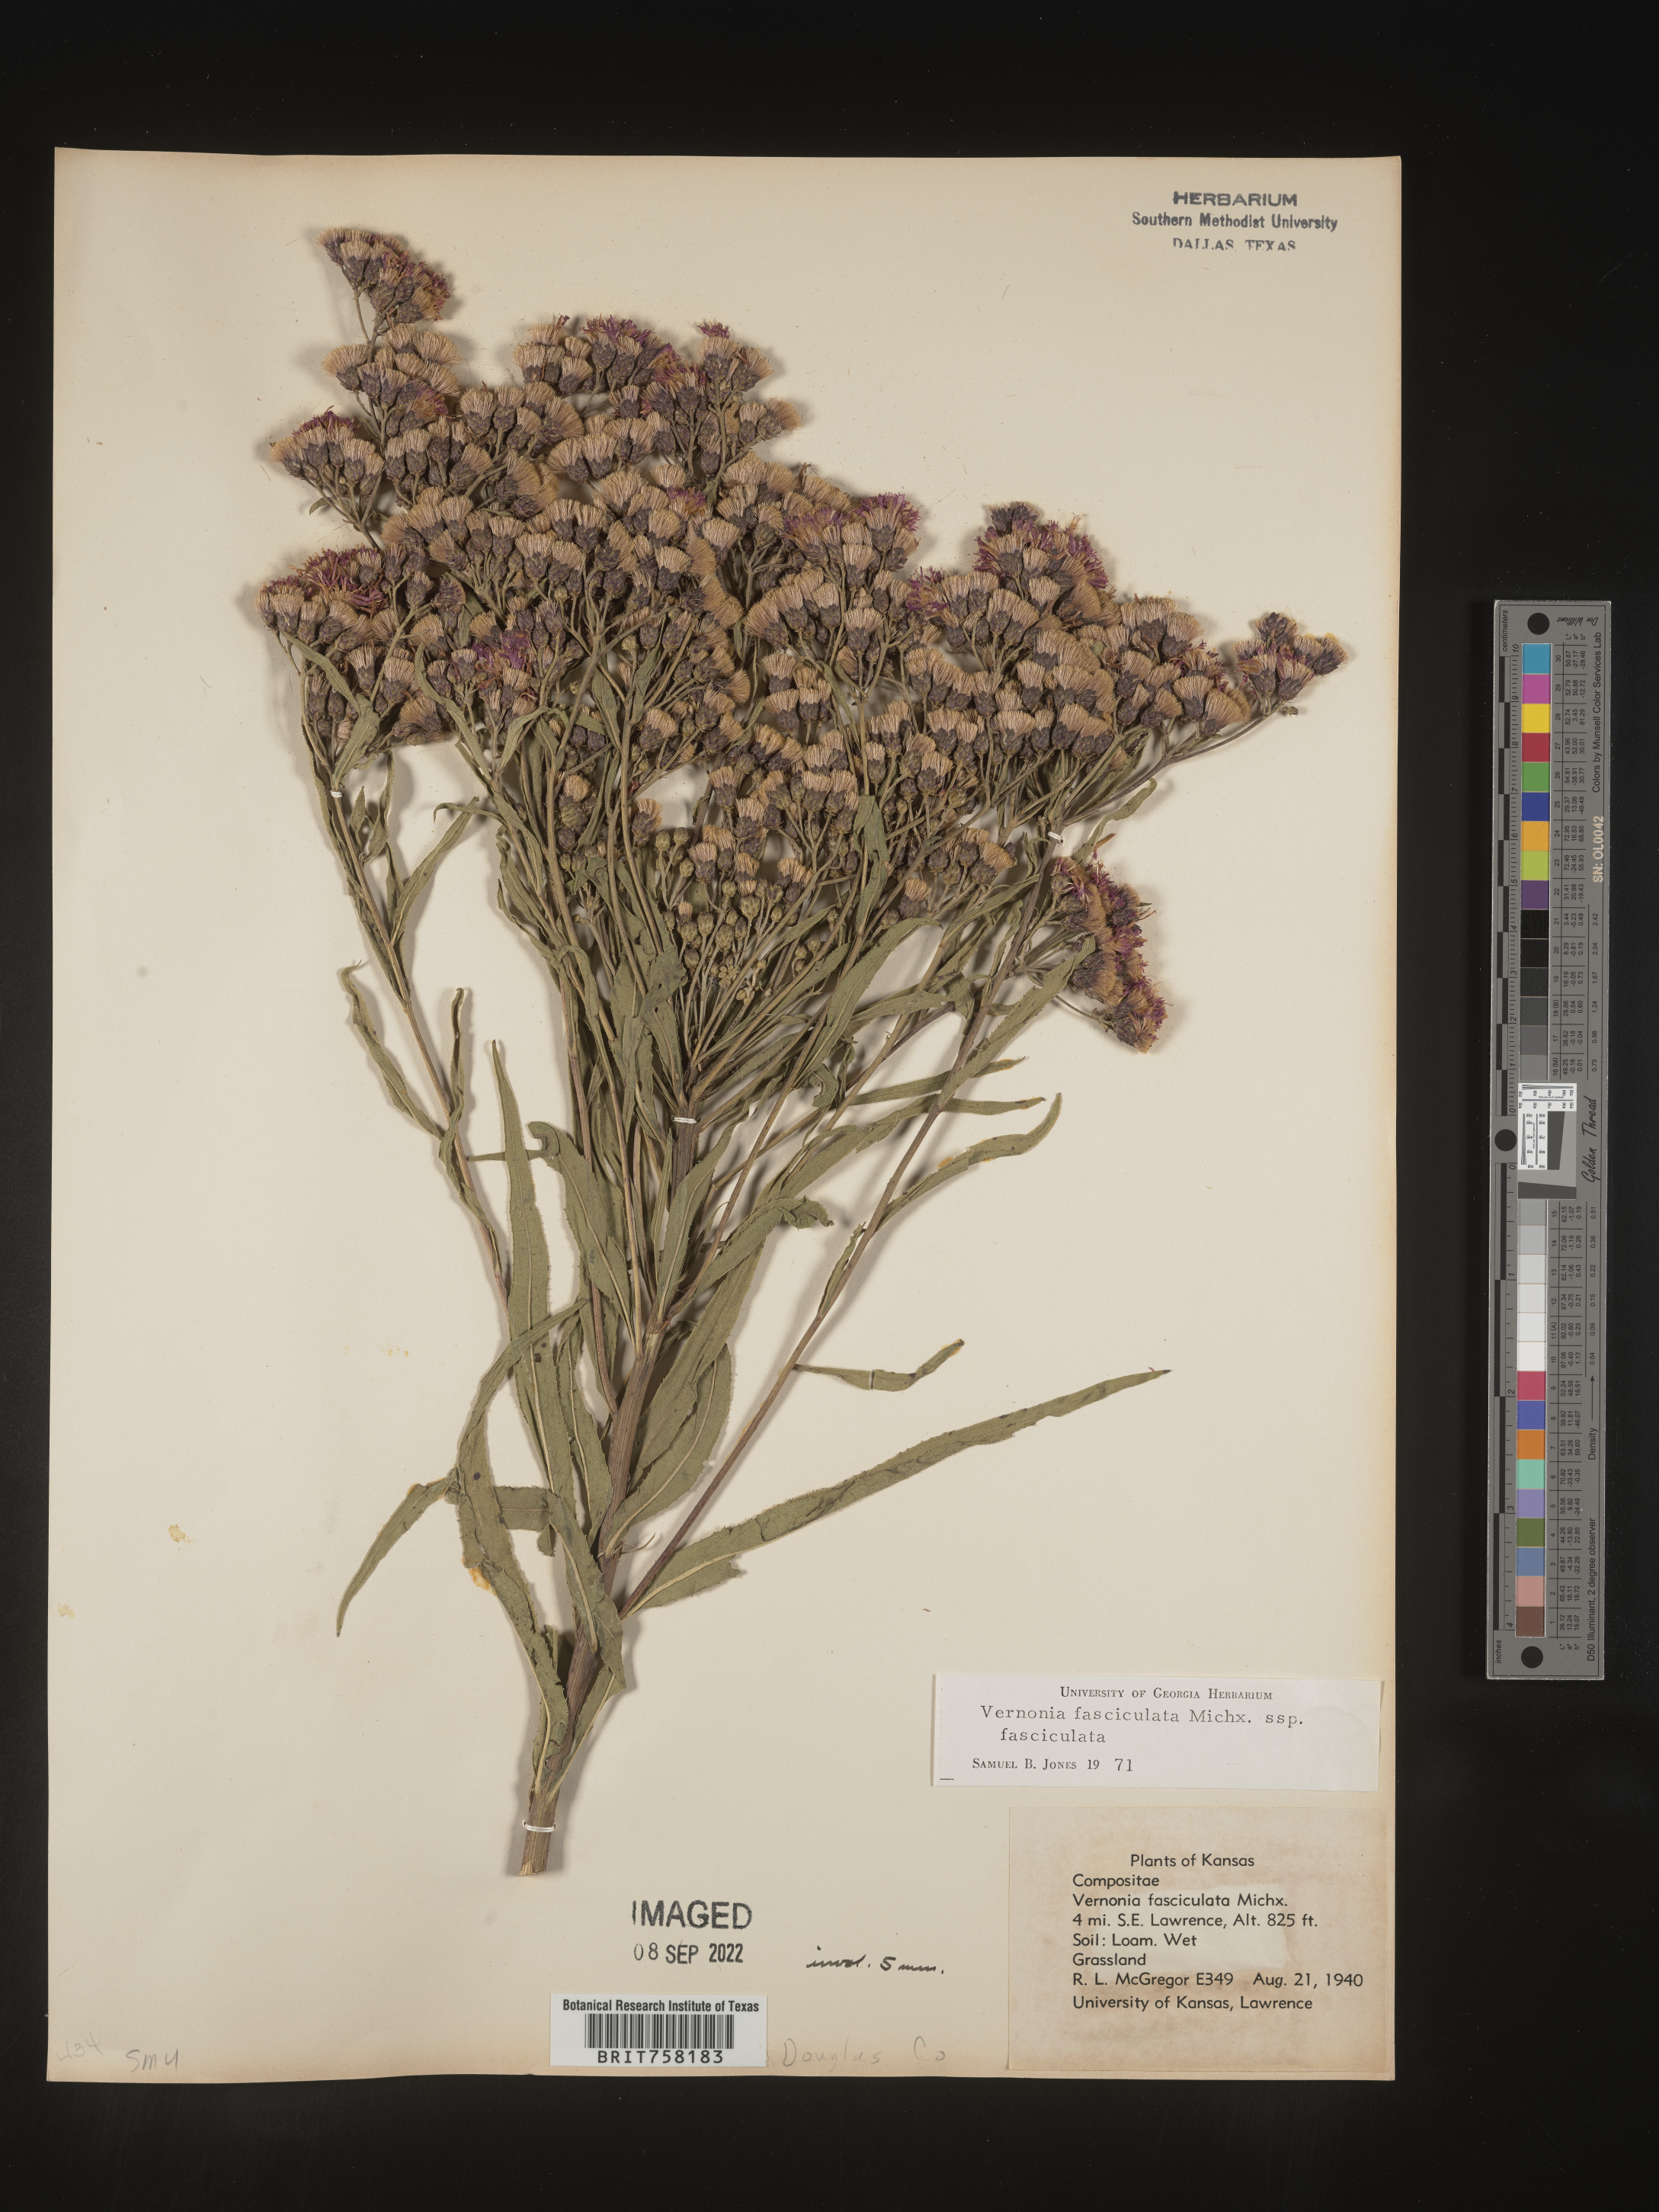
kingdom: Plantae
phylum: Tracheophyta
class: Magnoliopsida
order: Asterales
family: Asteraceae
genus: Vernonia
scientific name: Vernonia fasciculata
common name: Fascicled ironweed
